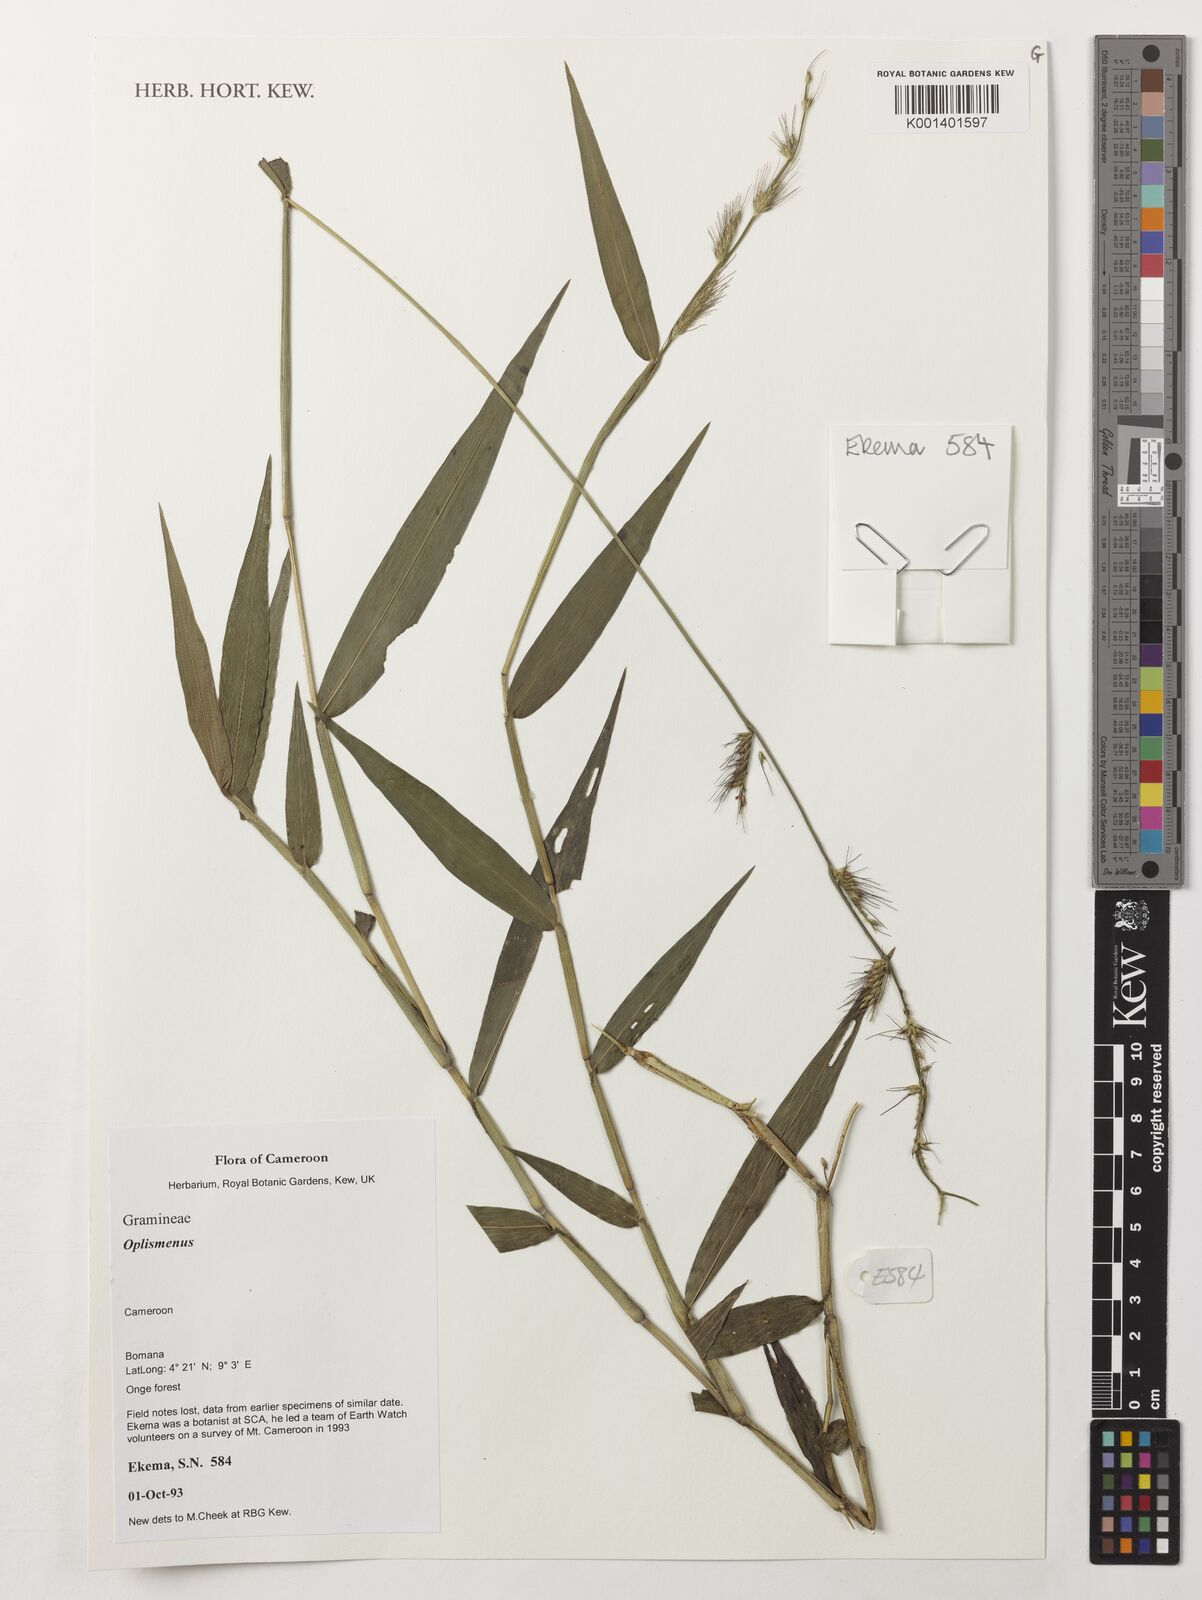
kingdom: Plantae
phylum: Tracheophyta
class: Liliopsida
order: Poales
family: Poaceae
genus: Oplismenus
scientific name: Oplismenus hirtellus
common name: Basketgrass
